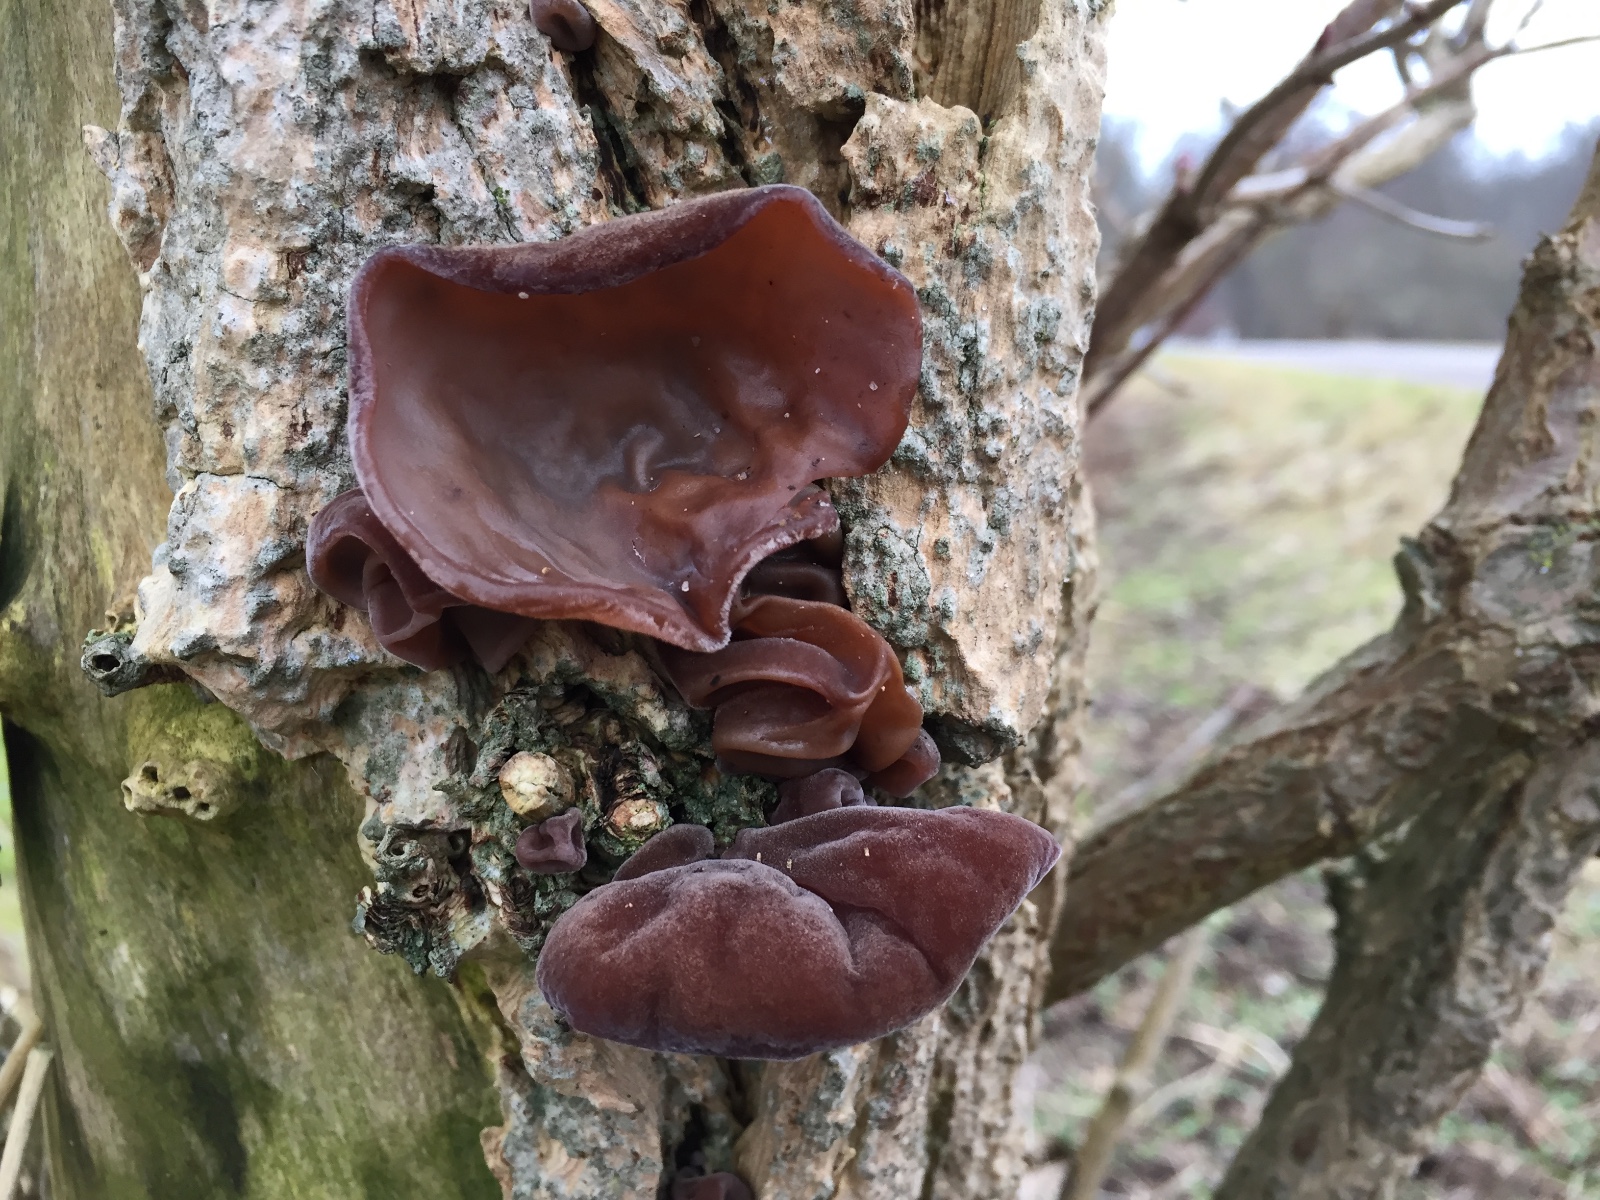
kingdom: Fungi
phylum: Basidiomycota
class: Agaricomycetes
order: Auriculariales
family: Auriculariaceae
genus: Auricularia
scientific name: Auricularia auricula-judae
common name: almindelig judasøre
